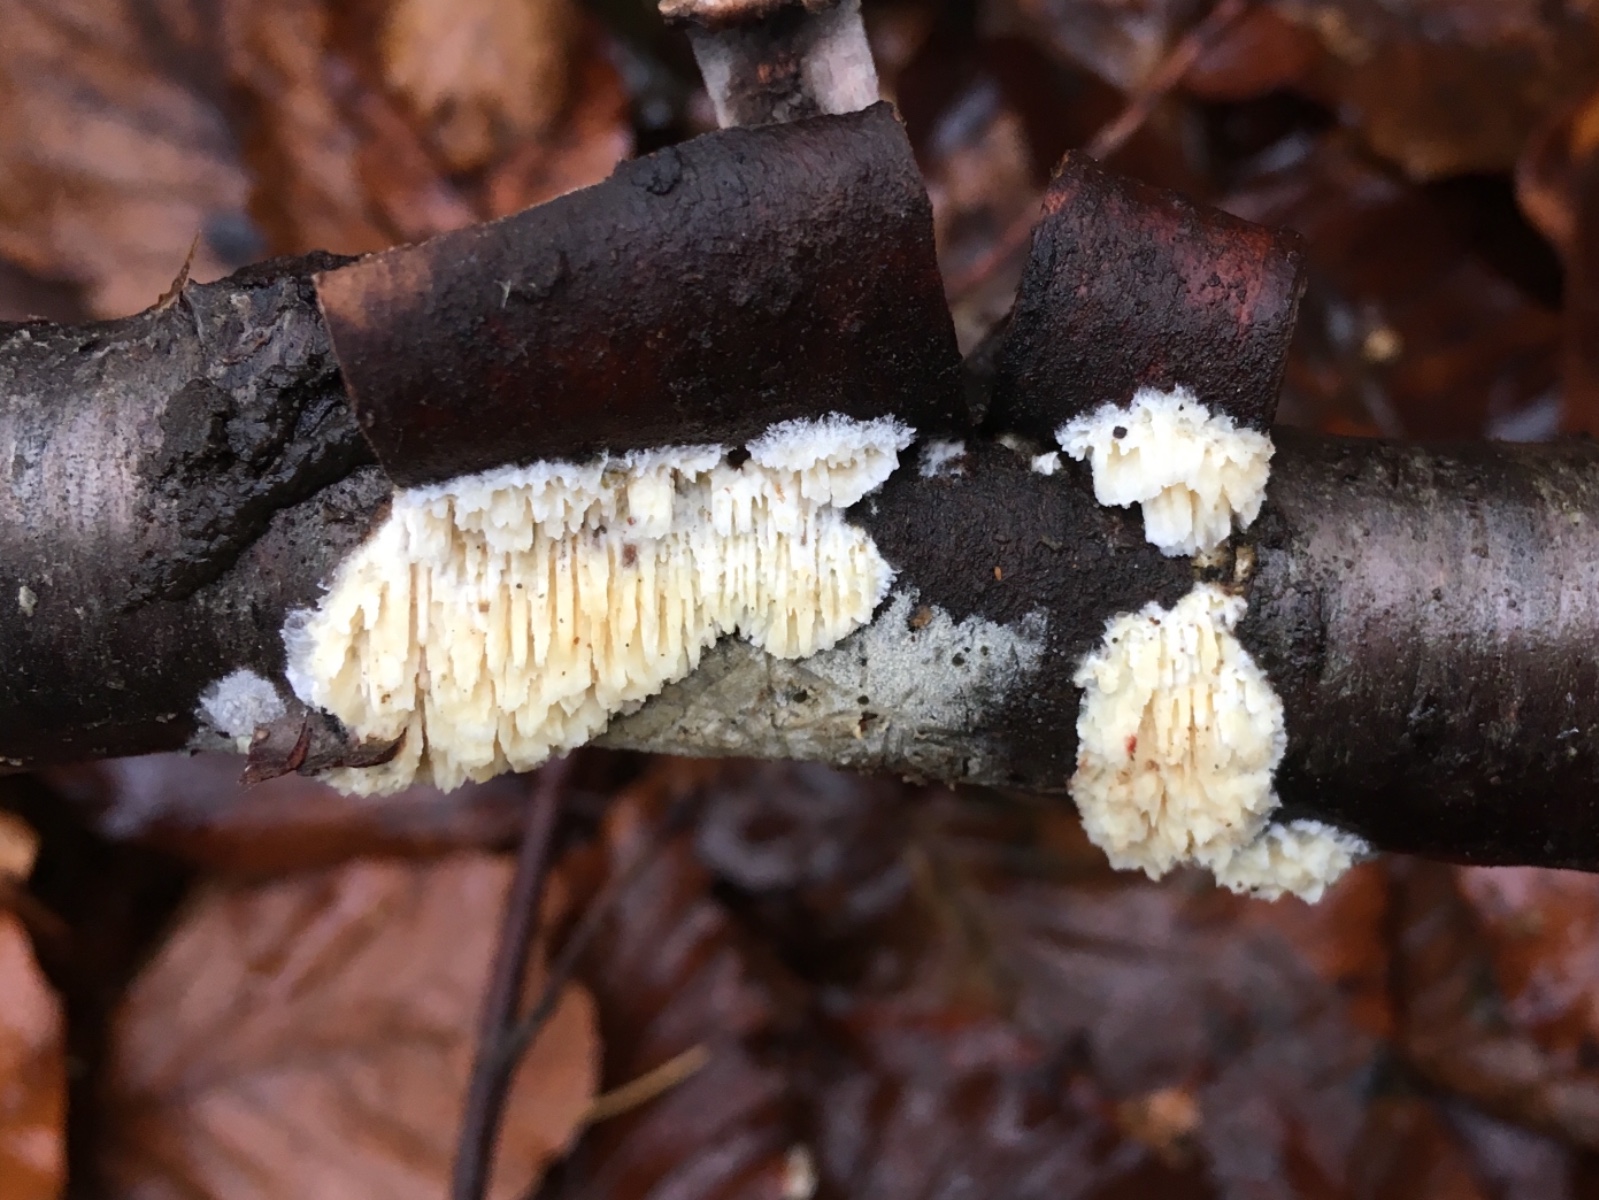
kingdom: Fungi
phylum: Basidiomycota
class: Agaricomycetes
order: Hymenochaetales
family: Schizoporaceae
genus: Xylodon
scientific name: Xylodon radula
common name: grovtandet kalkskind
